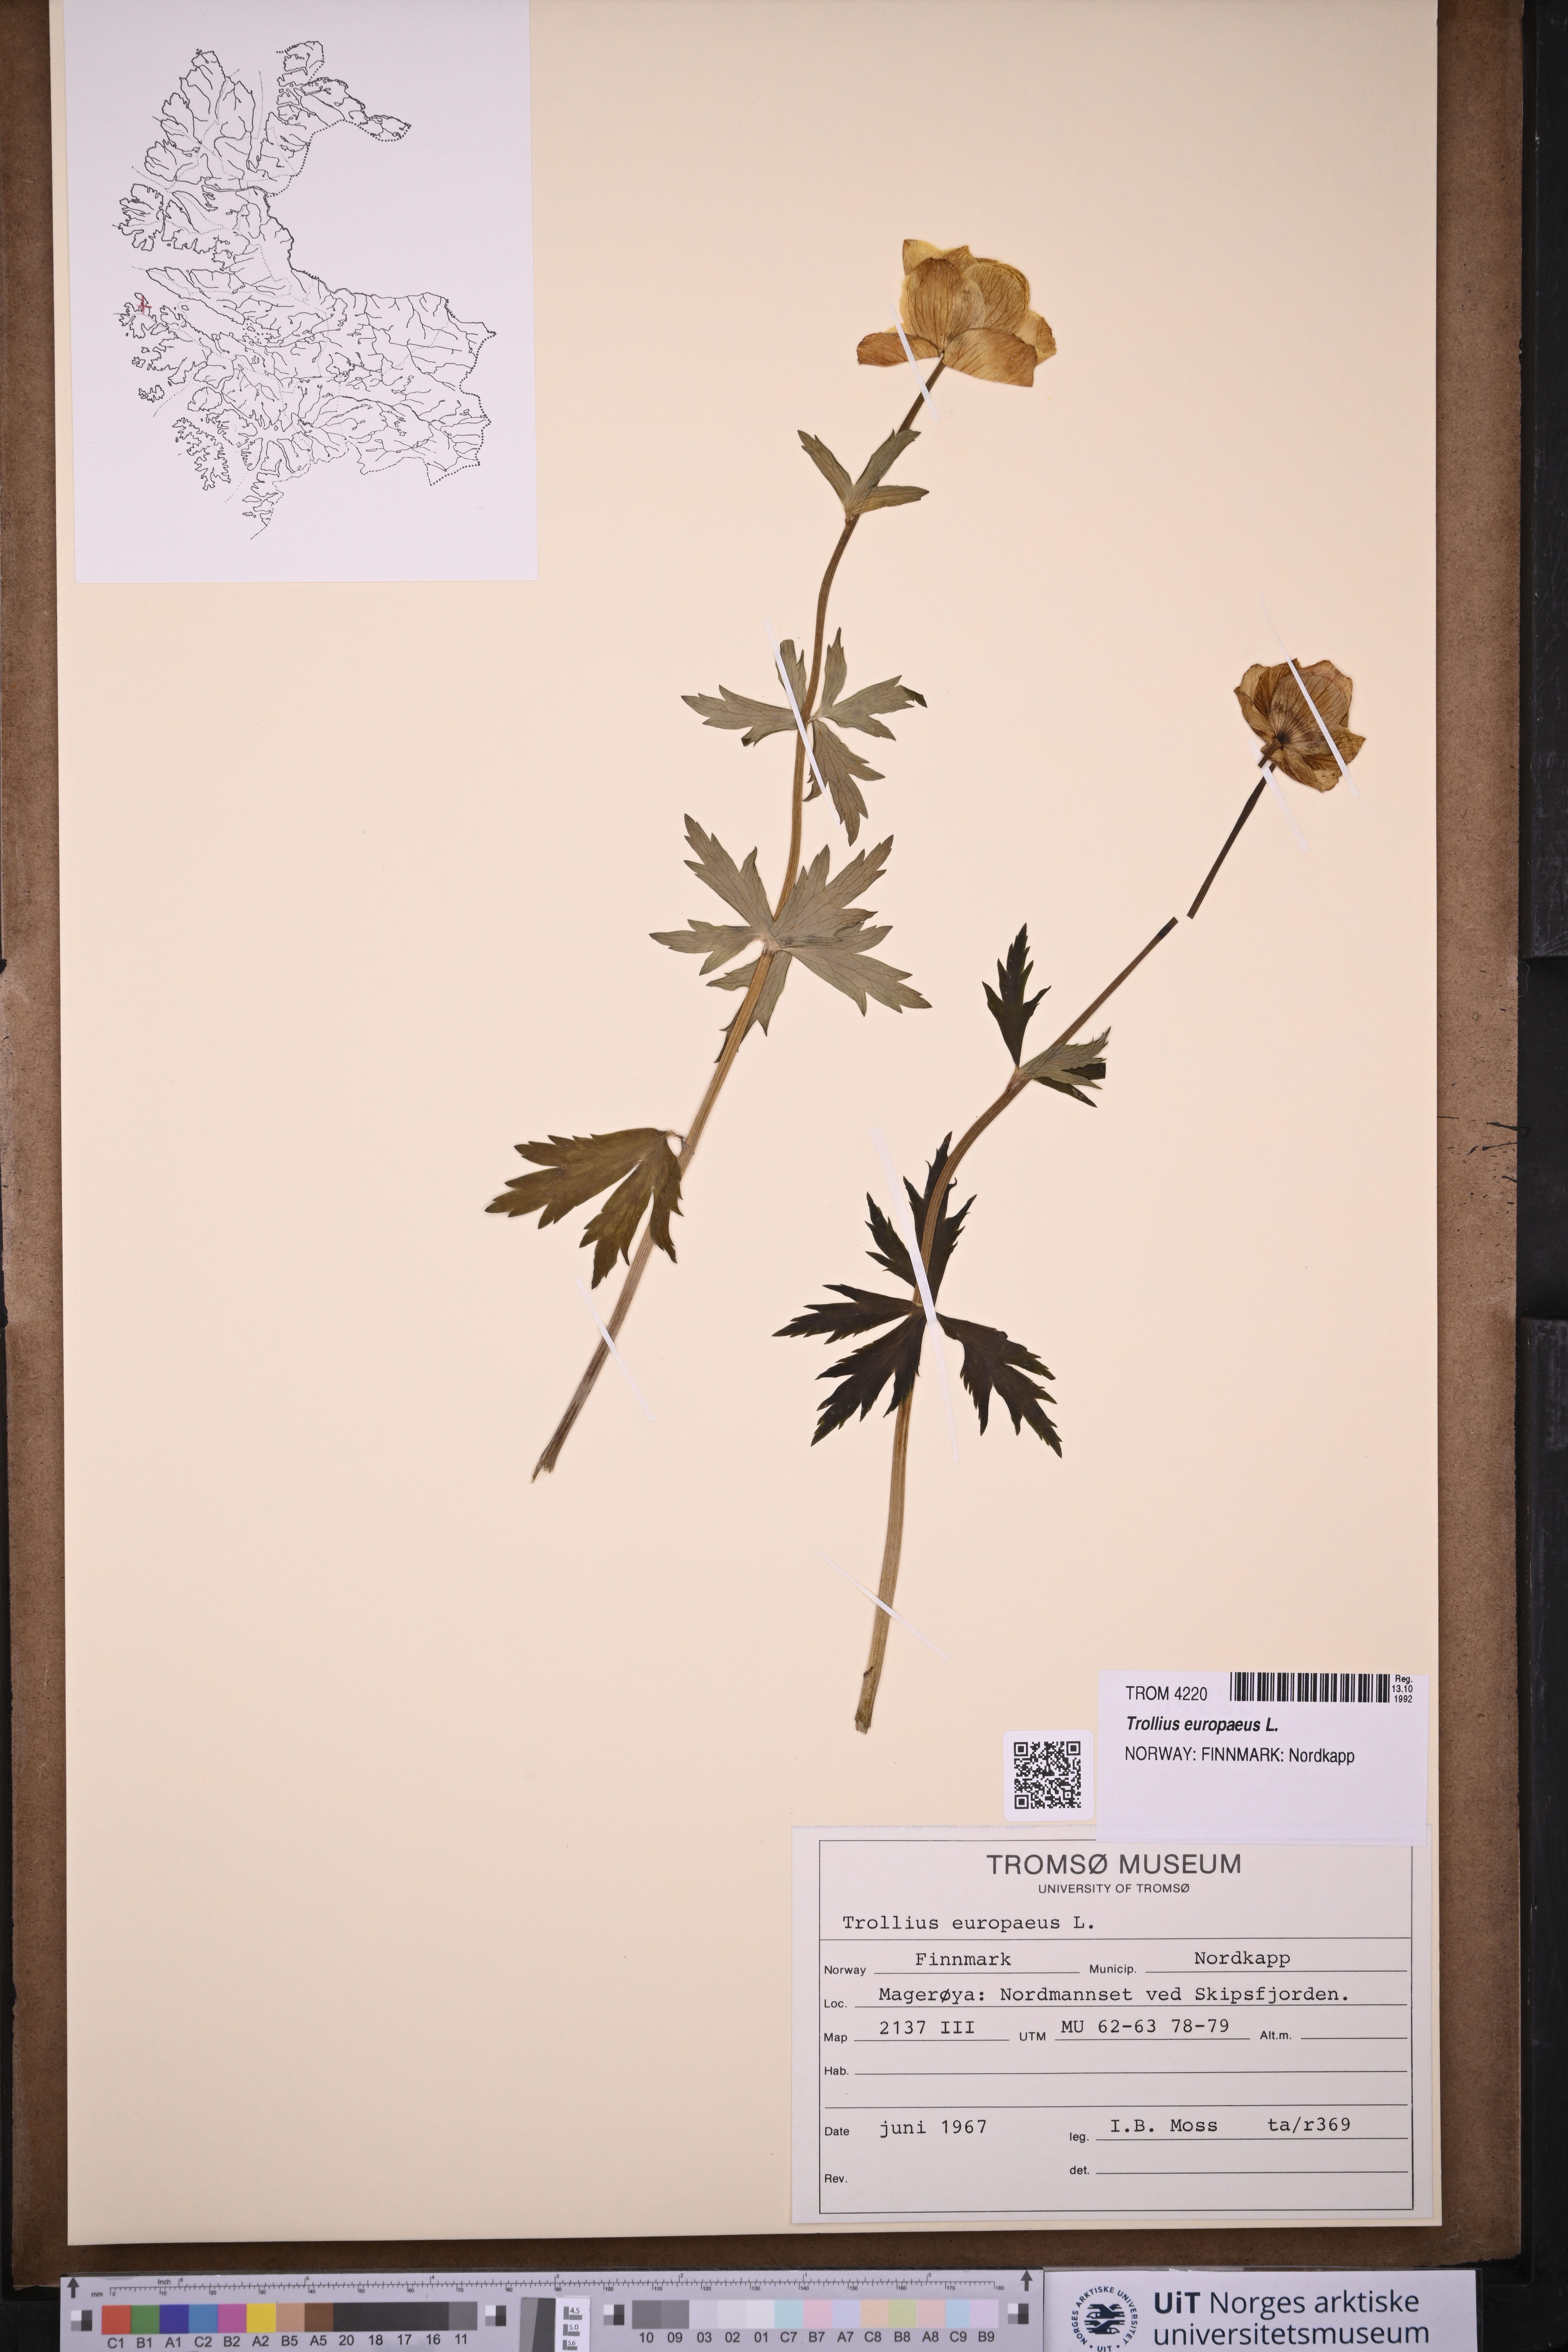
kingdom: Plantae
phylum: Tracheophyta
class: Magnoliopsida
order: Ranunculales
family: Ranunculaceae
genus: Trollius
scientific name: Trollius europaeus
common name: European globeflower
